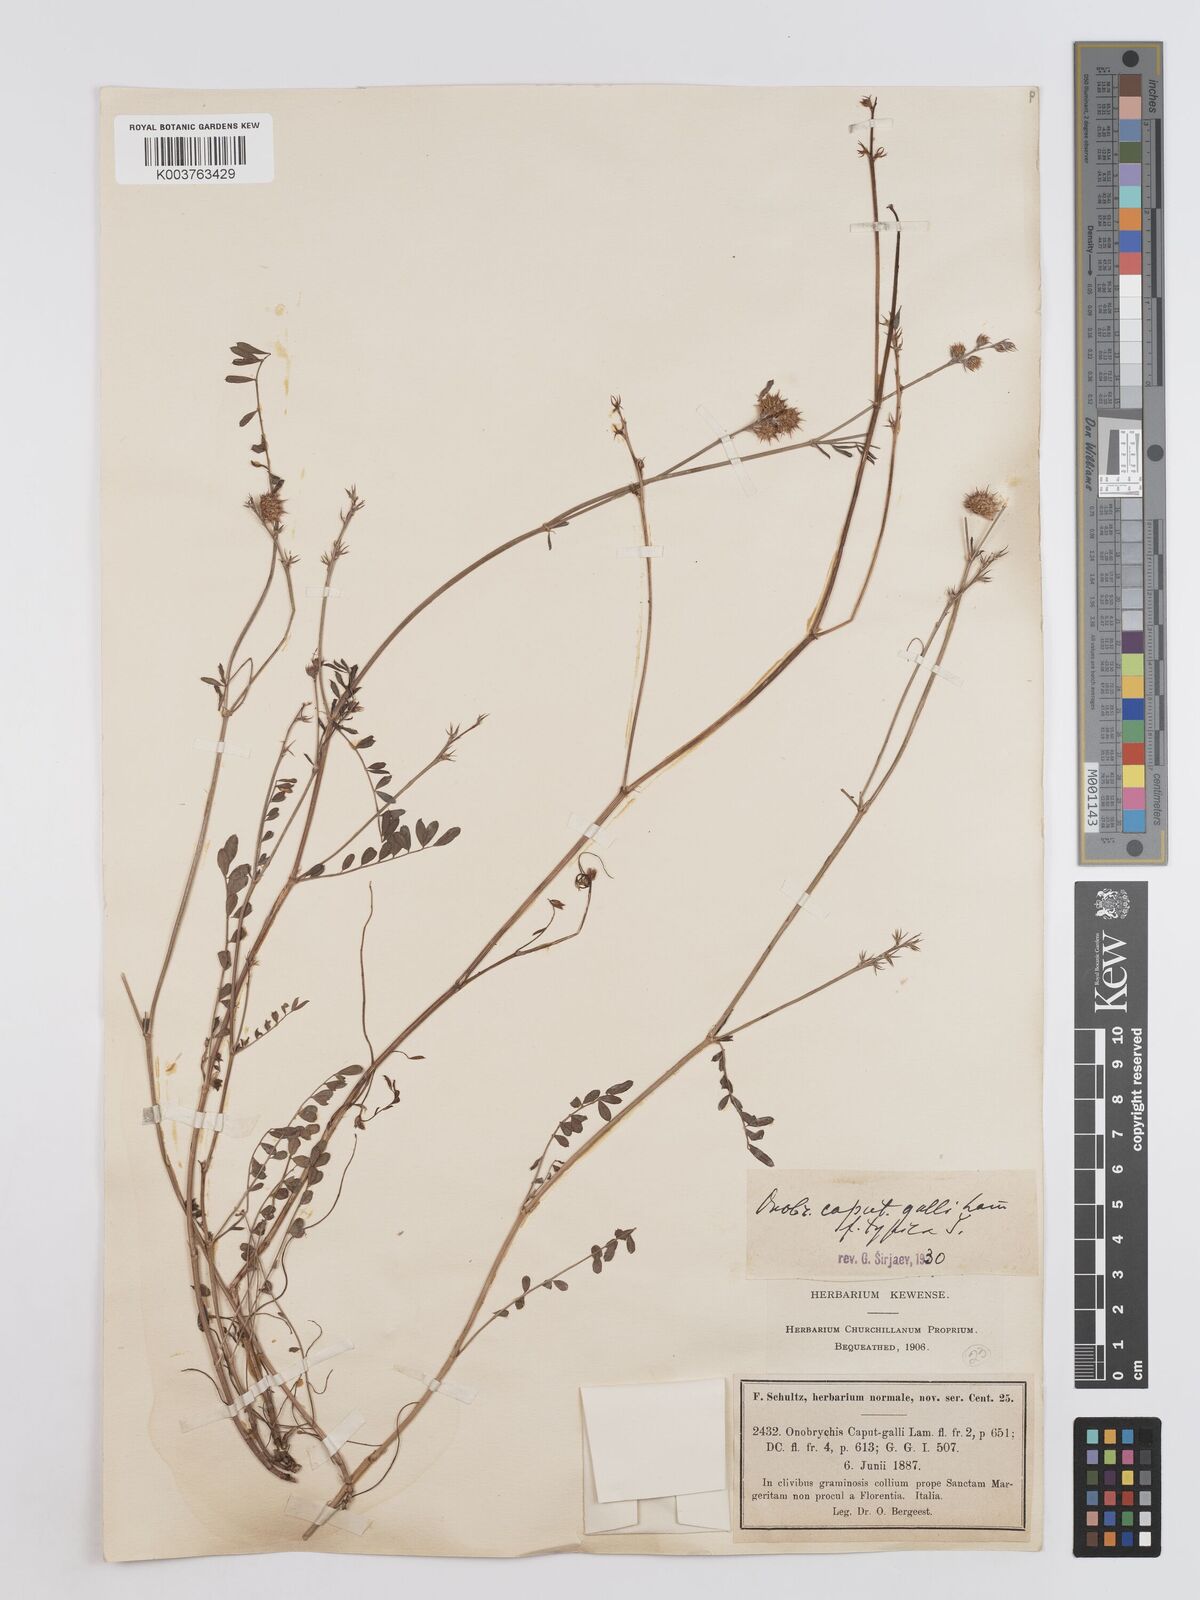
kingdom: Plantae
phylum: Tracheophyta
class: Magnoliopsida
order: Fabales
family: Fabaceae
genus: Onobrychis
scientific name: Onobrychis caput-galli
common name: Cockscomb sainfoin
